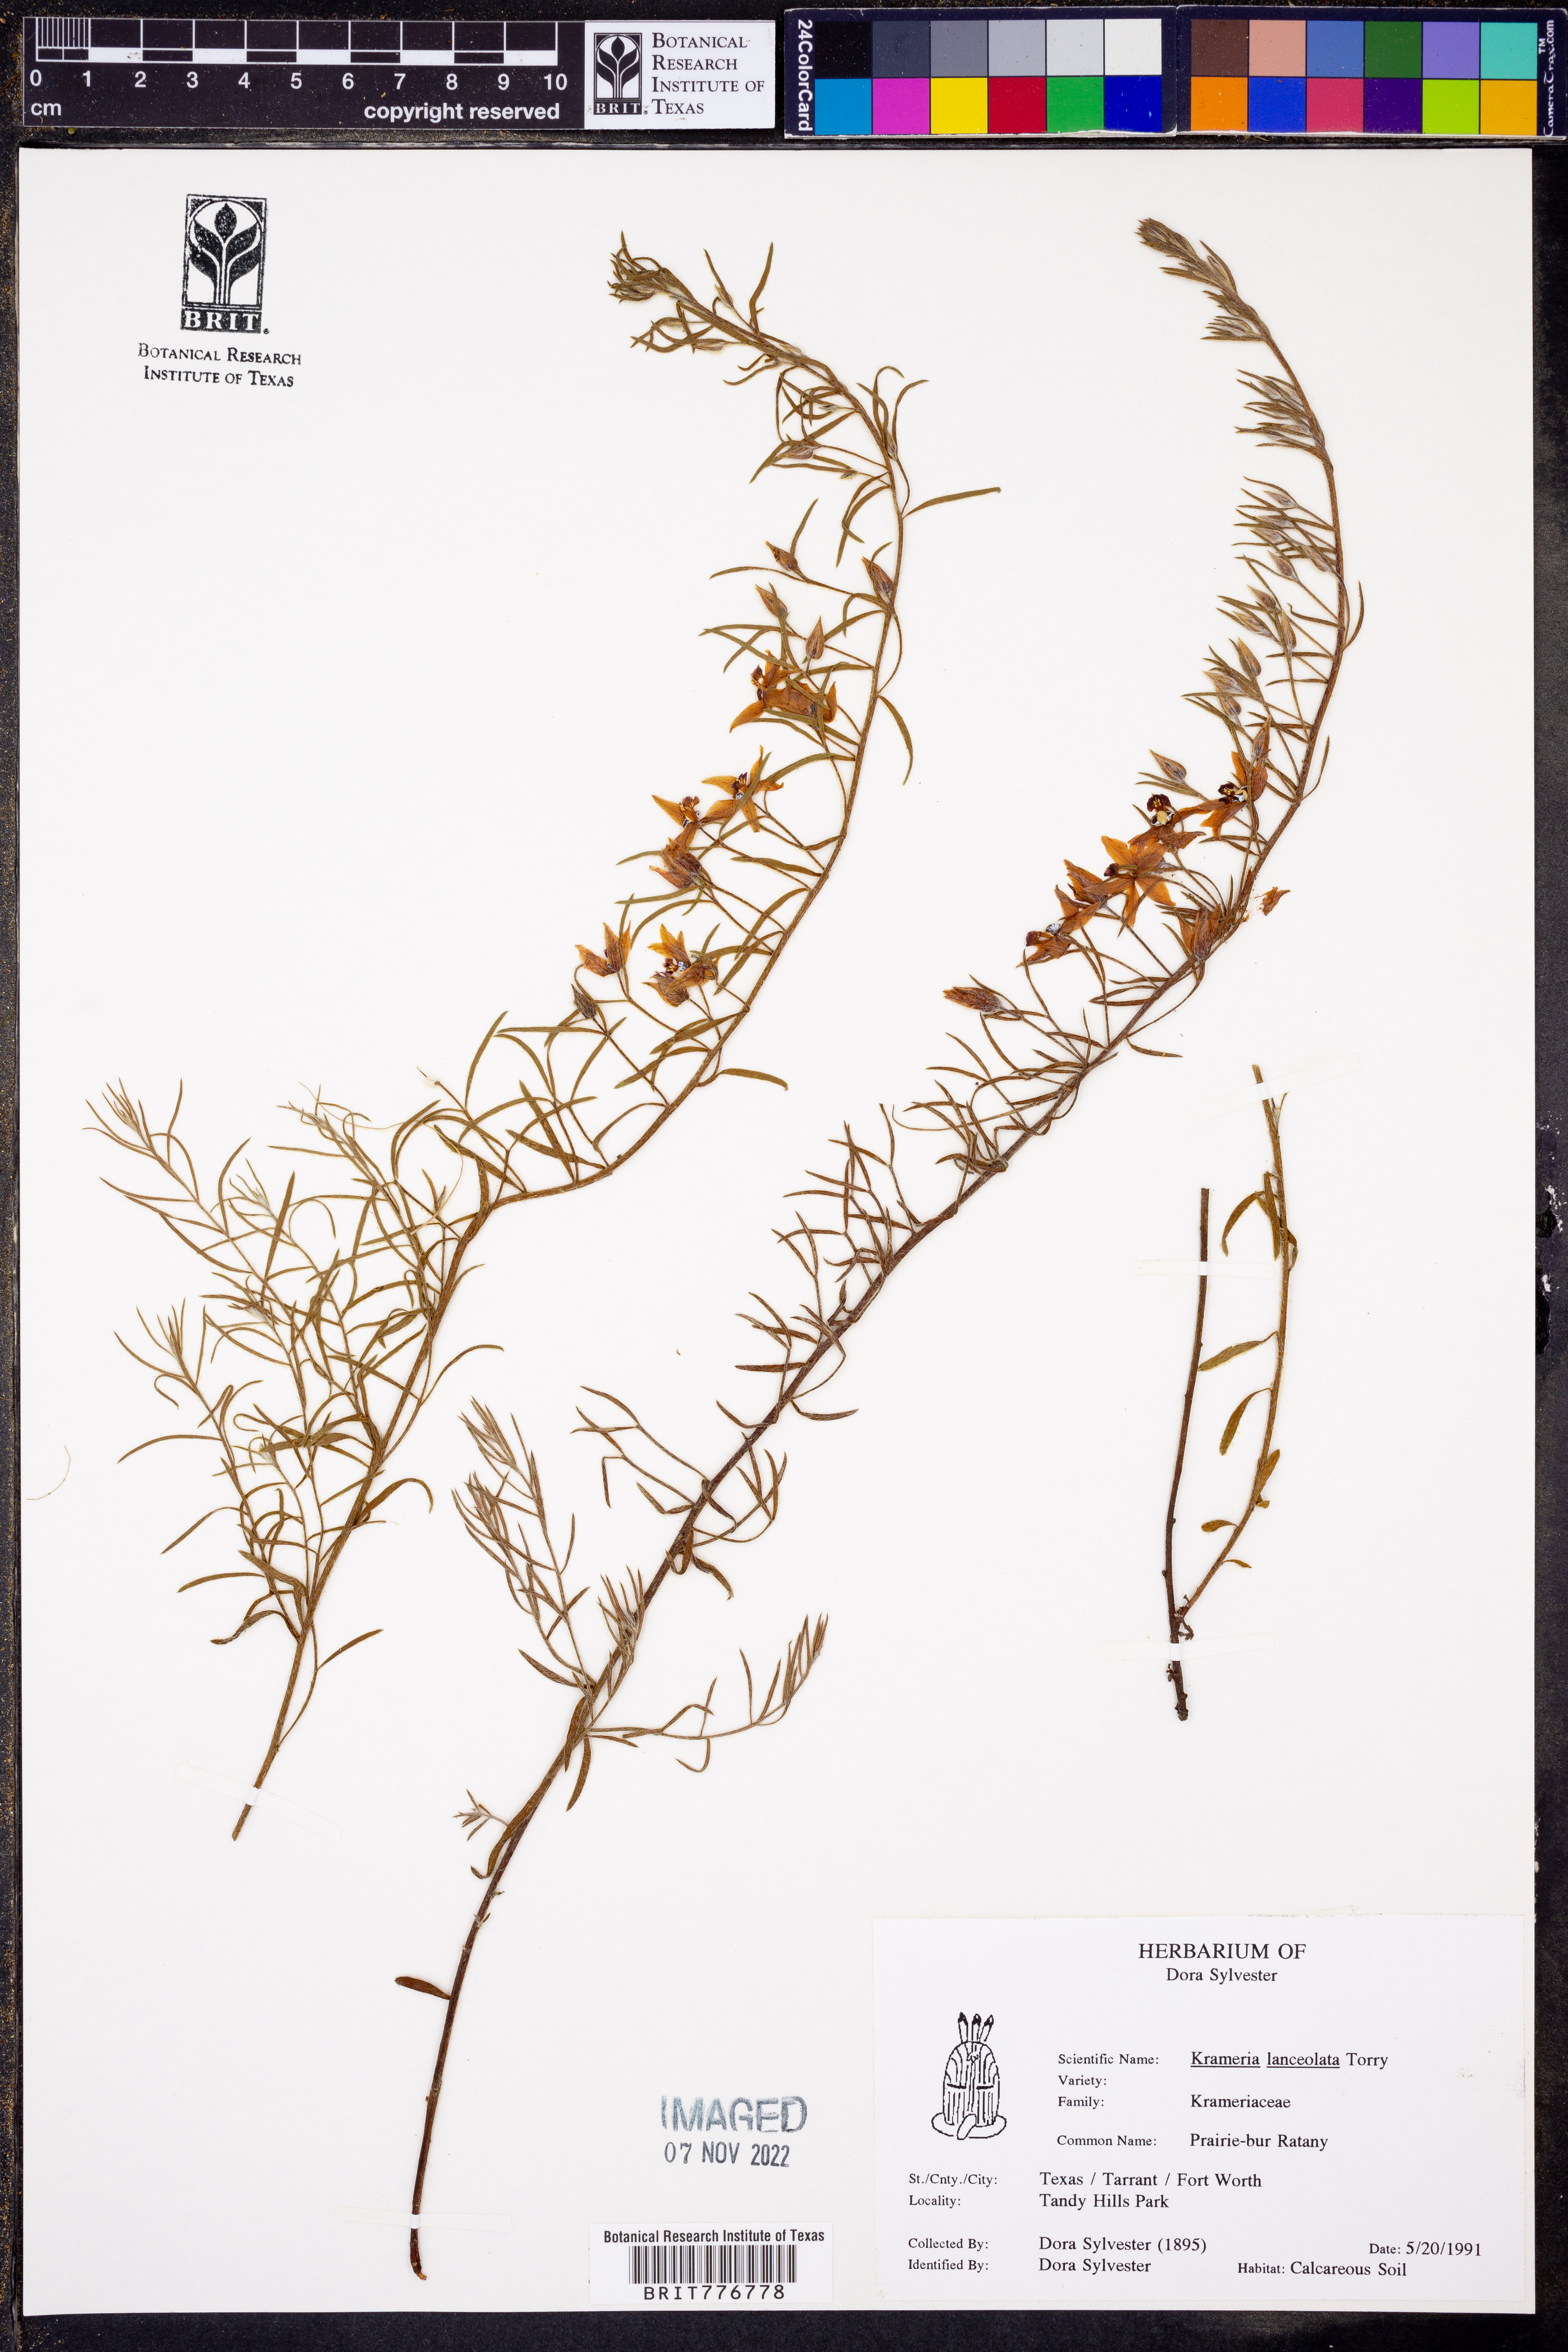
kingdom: Plantae
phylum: Tracheophyta
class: Magnoliopsida
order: Zygophyllales
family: Krameriaceae
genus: Krameria
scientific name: Krameria lanceolata
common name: Ratany
